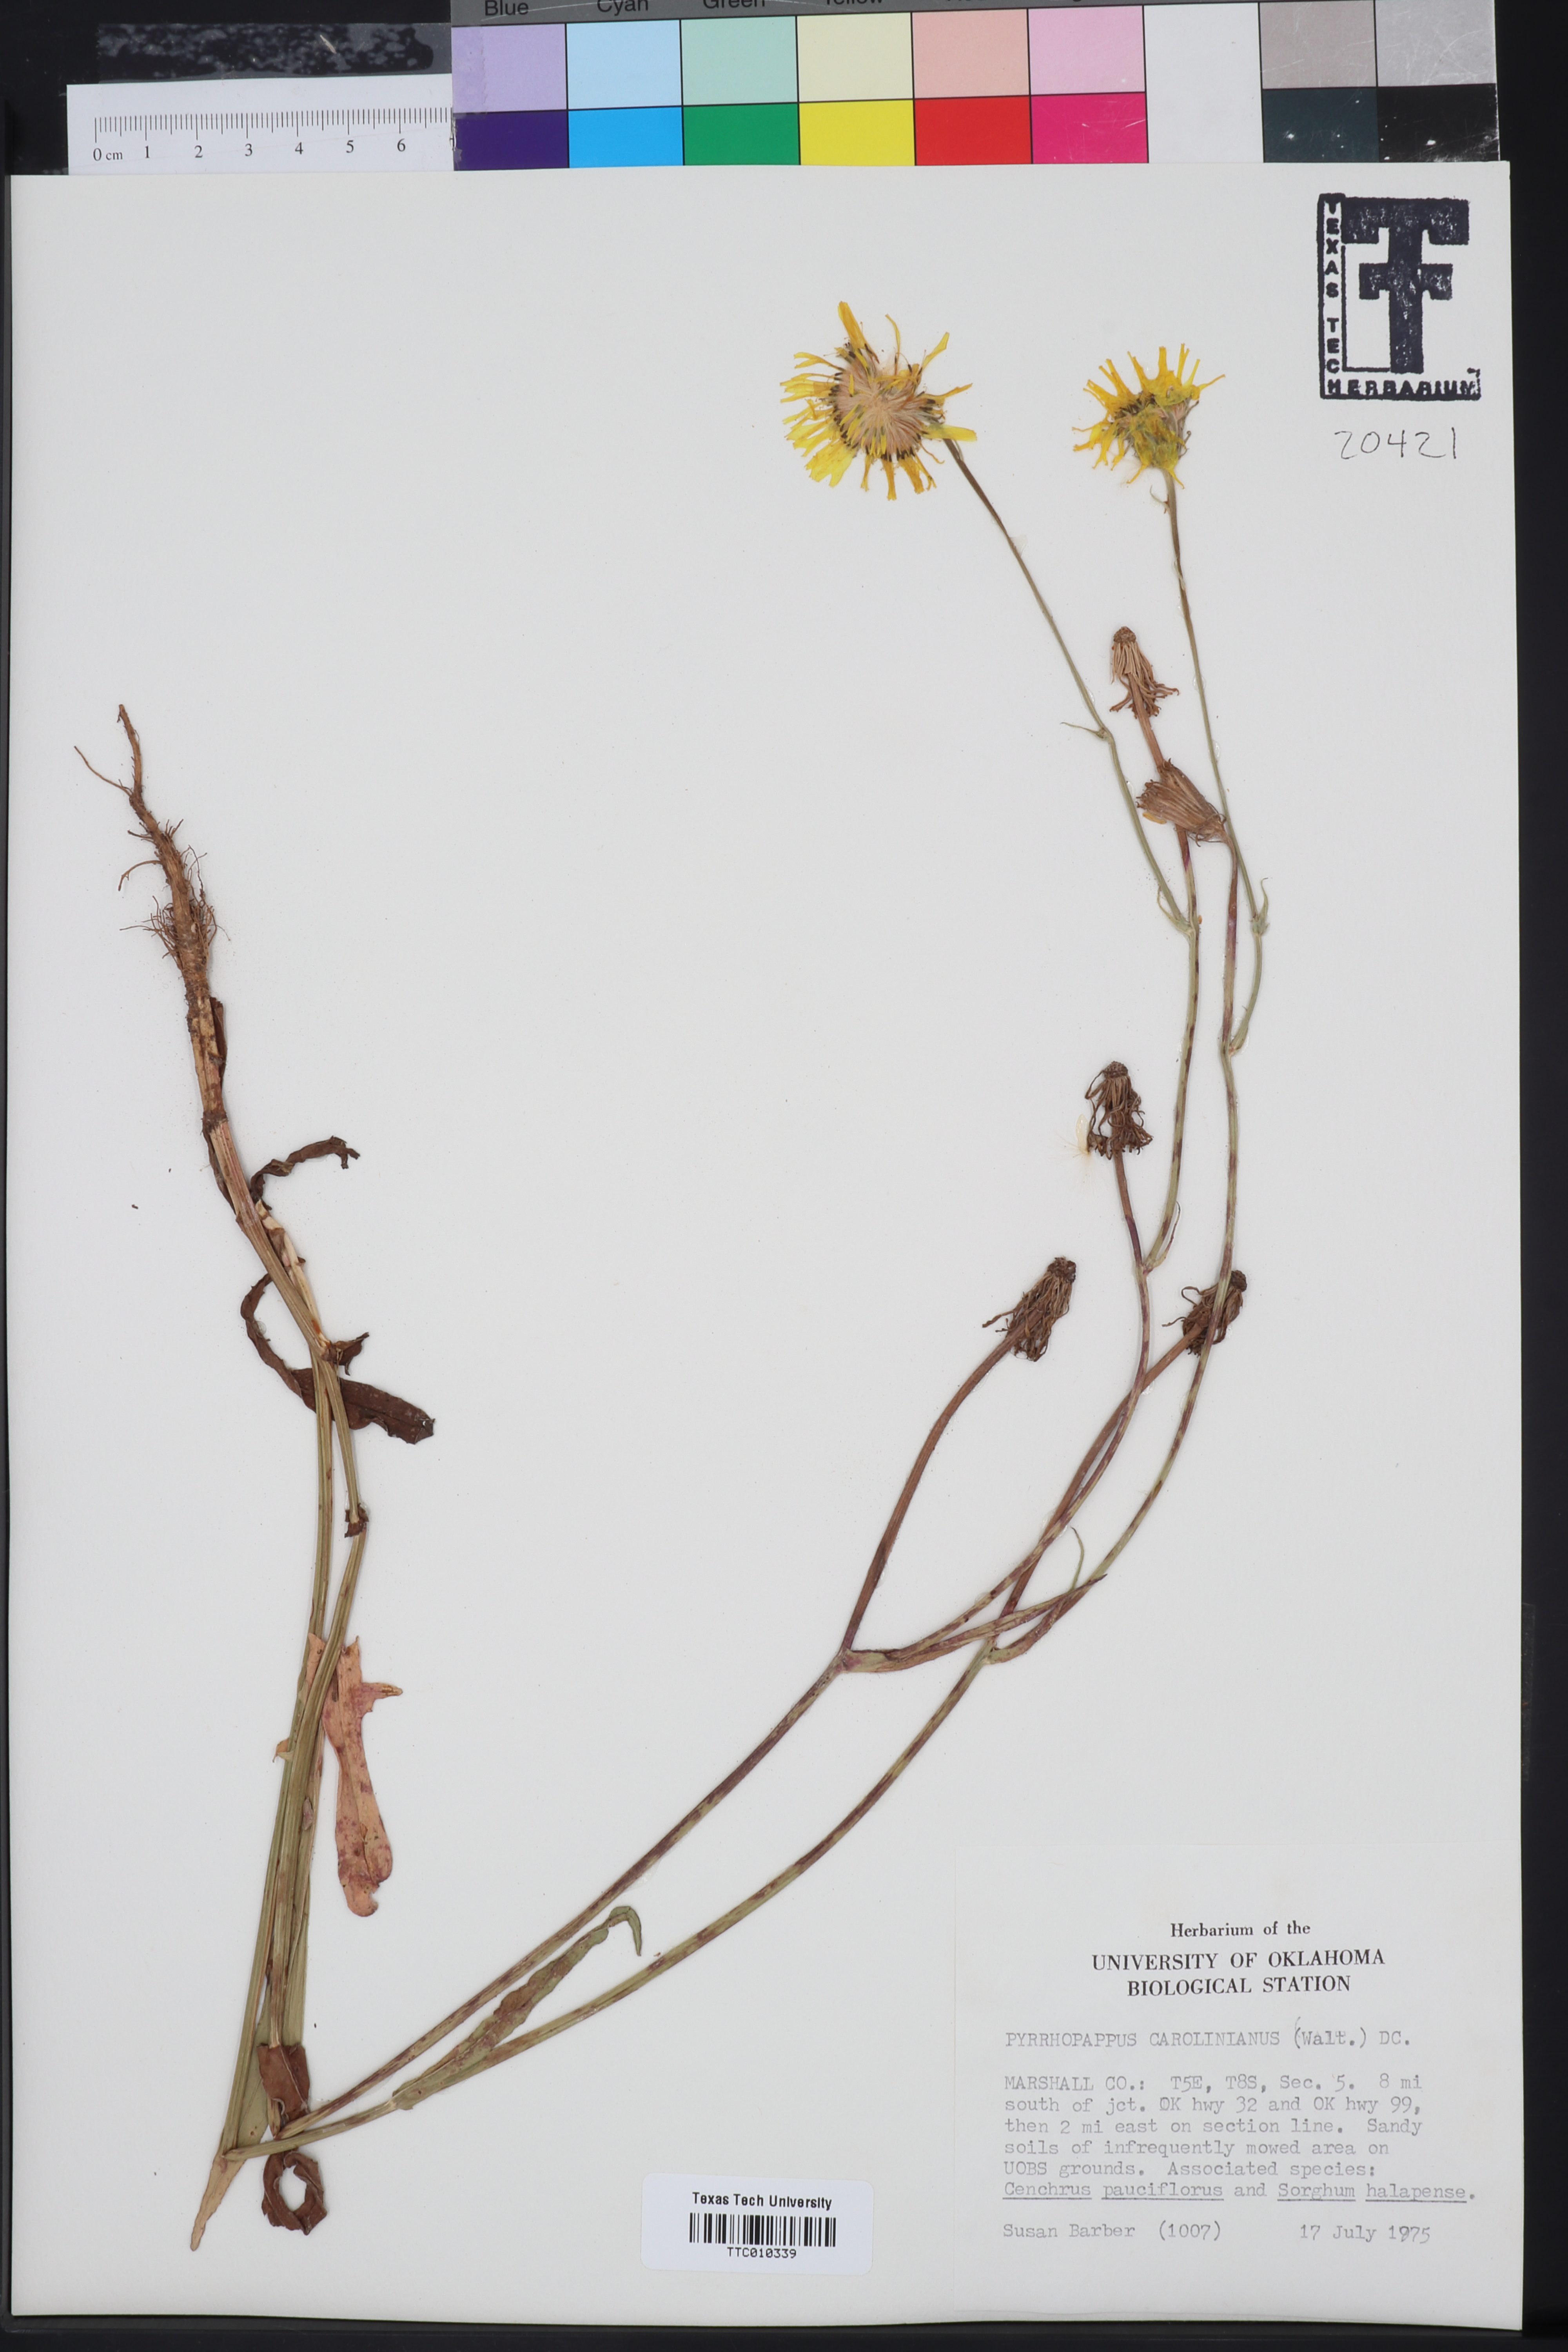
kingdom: Plantae
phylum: Tracheophyta
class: Magnoliopsida
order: Asterales
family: Asteraceae
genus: Pyrrhopappus
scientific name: Pyrrhopappus carolinianus
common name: Carolina desert-chicory
